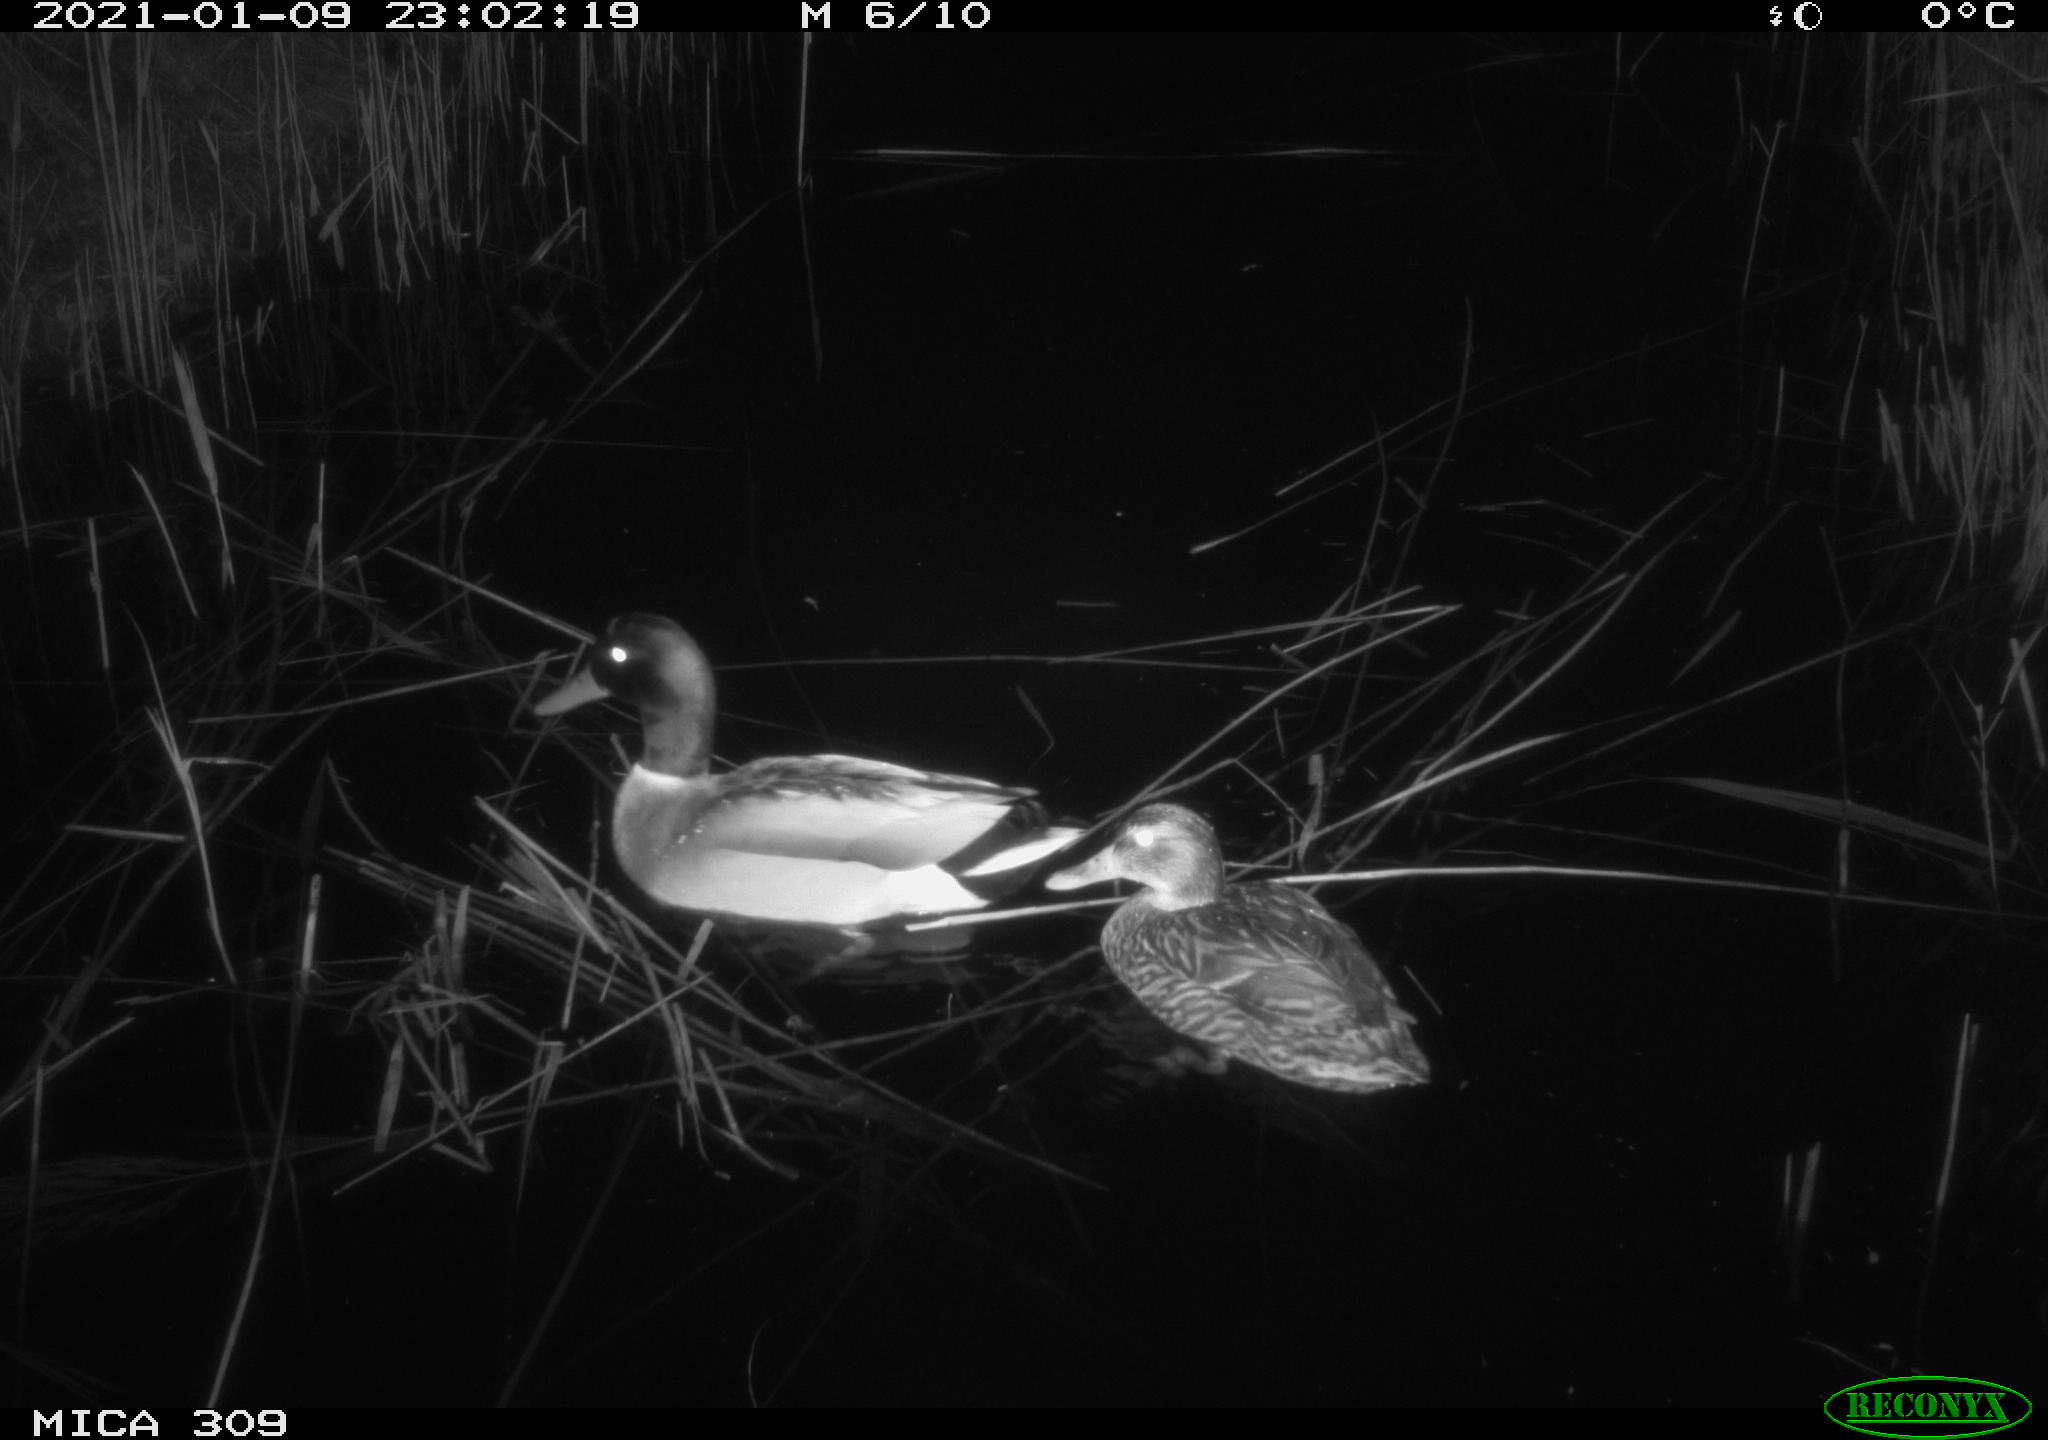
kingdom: Animalia
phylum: Chordata
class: Aves
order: Anseriformes
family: Anatidae
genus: Anas
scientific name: Anas platyrhynchos
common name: Mallard
